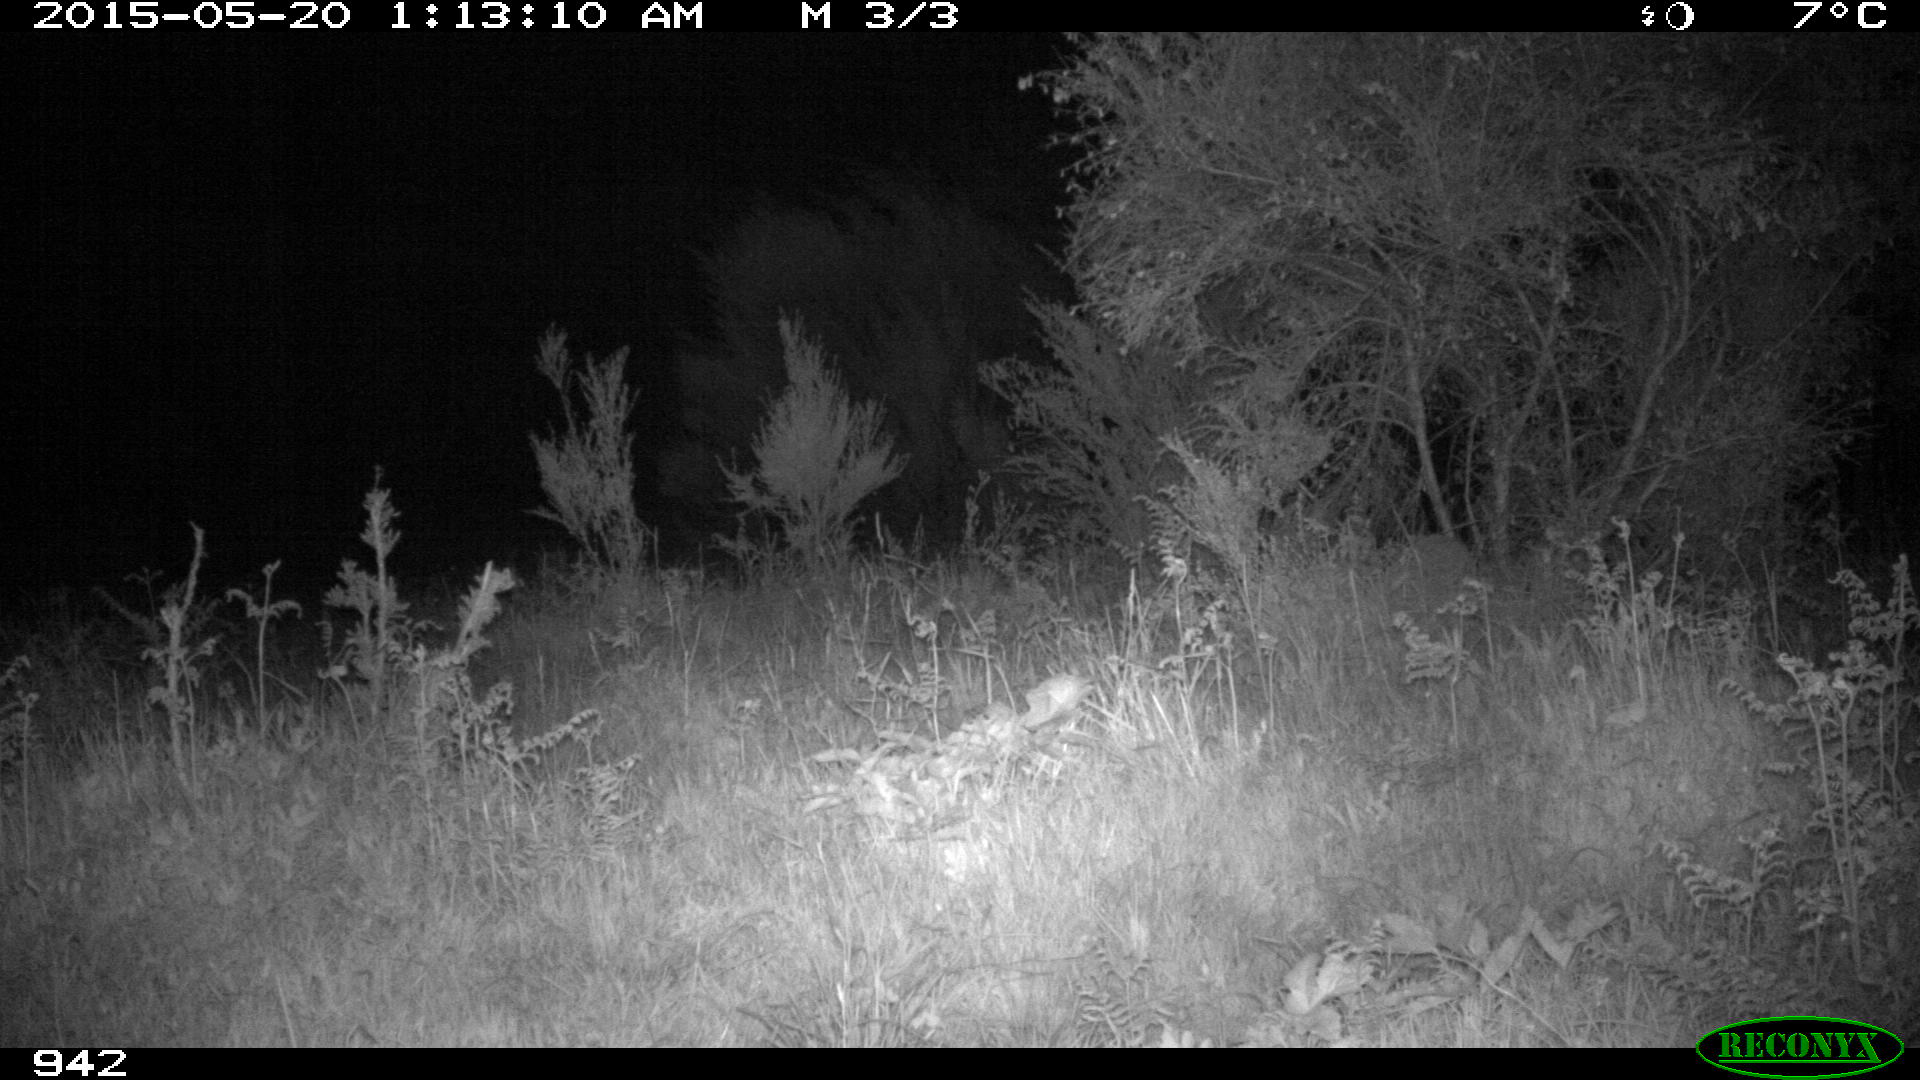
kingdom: Animalia
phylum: Chordata
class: Mammalia
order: Artiodactyla
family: Suidae
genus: Sus
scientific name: Sus scrofa
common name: Wild boar
